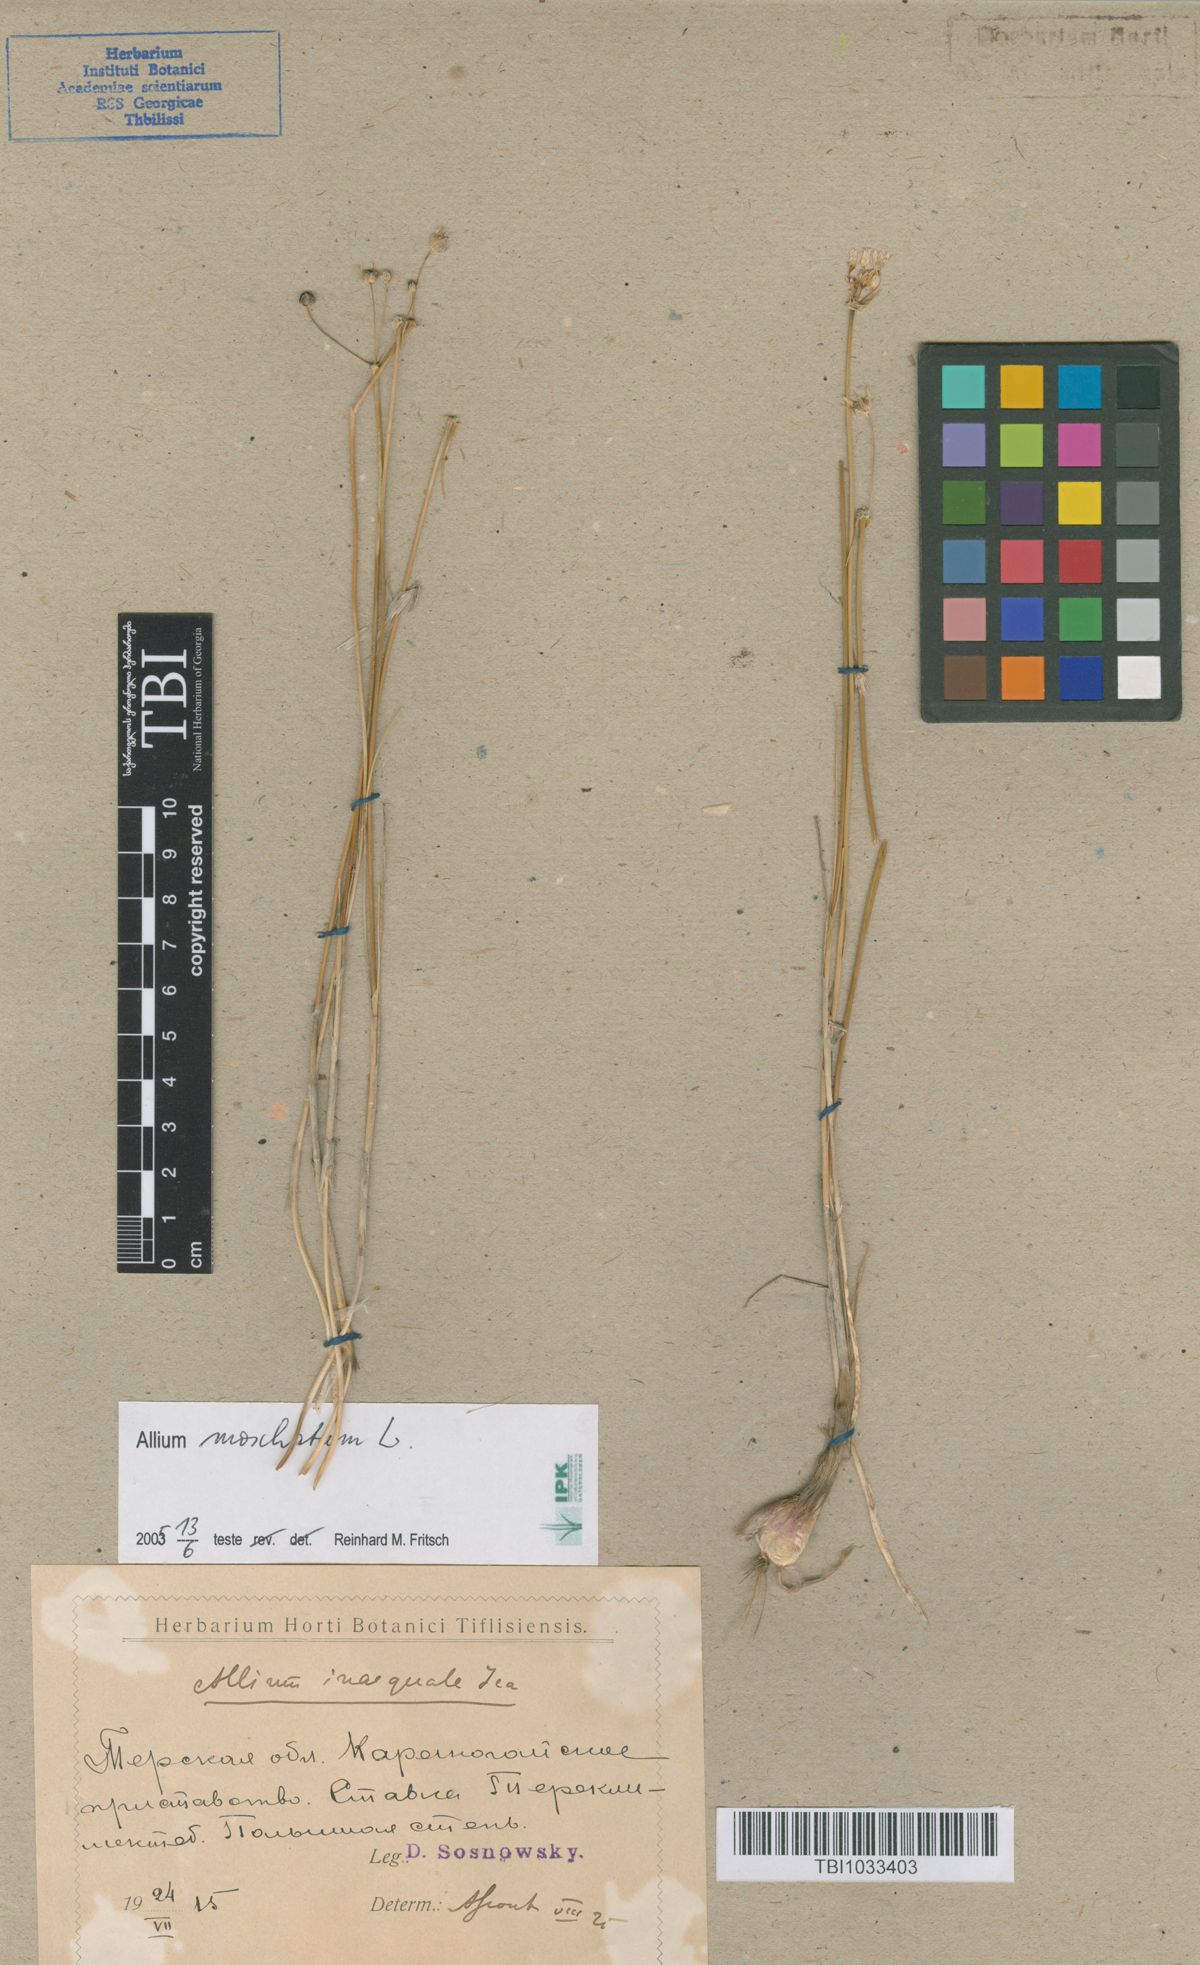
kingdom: Plantae
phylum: Tracheophyta
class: Liliopsida
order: Asparagales
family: Amaryllidaceae
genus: Allium
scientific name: Allium moschatum
